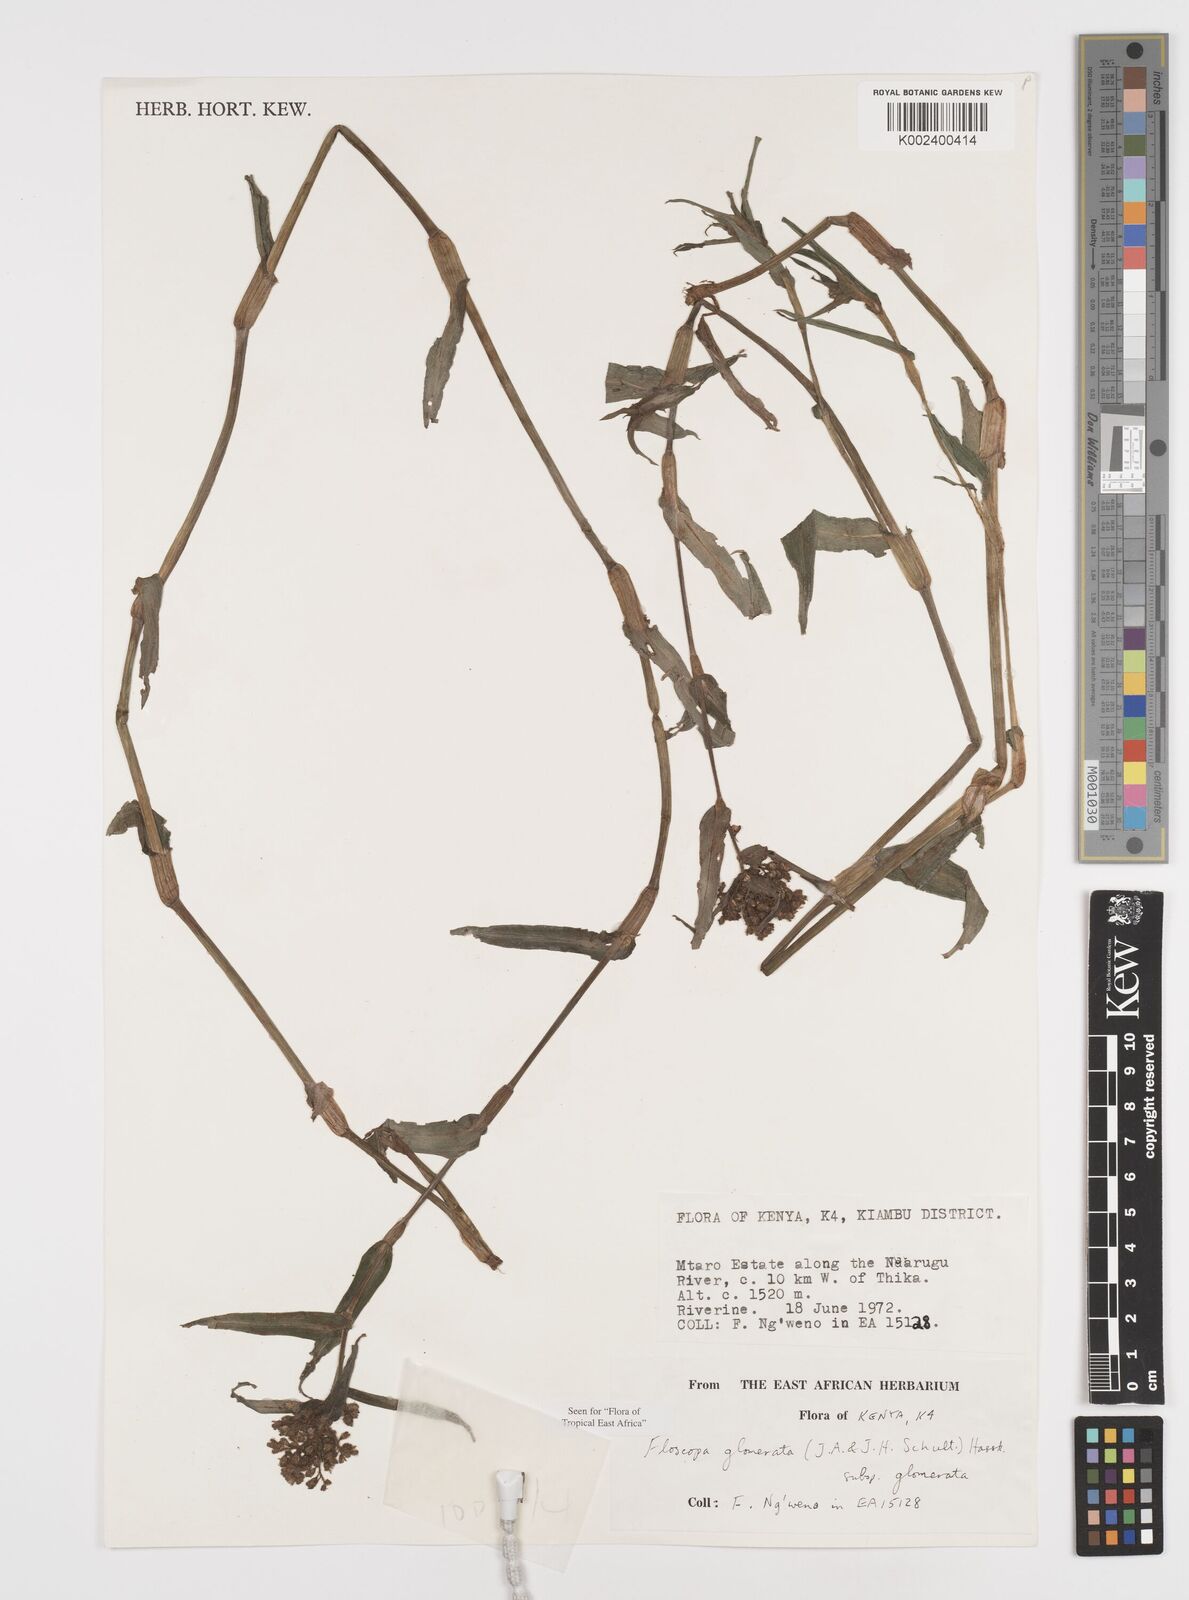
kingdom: Plantae
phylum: Tracheophyta
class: Liliopsida
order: Commelinales
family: Commelinaceae
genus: Floscopa
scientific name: Floscopa glomerata
